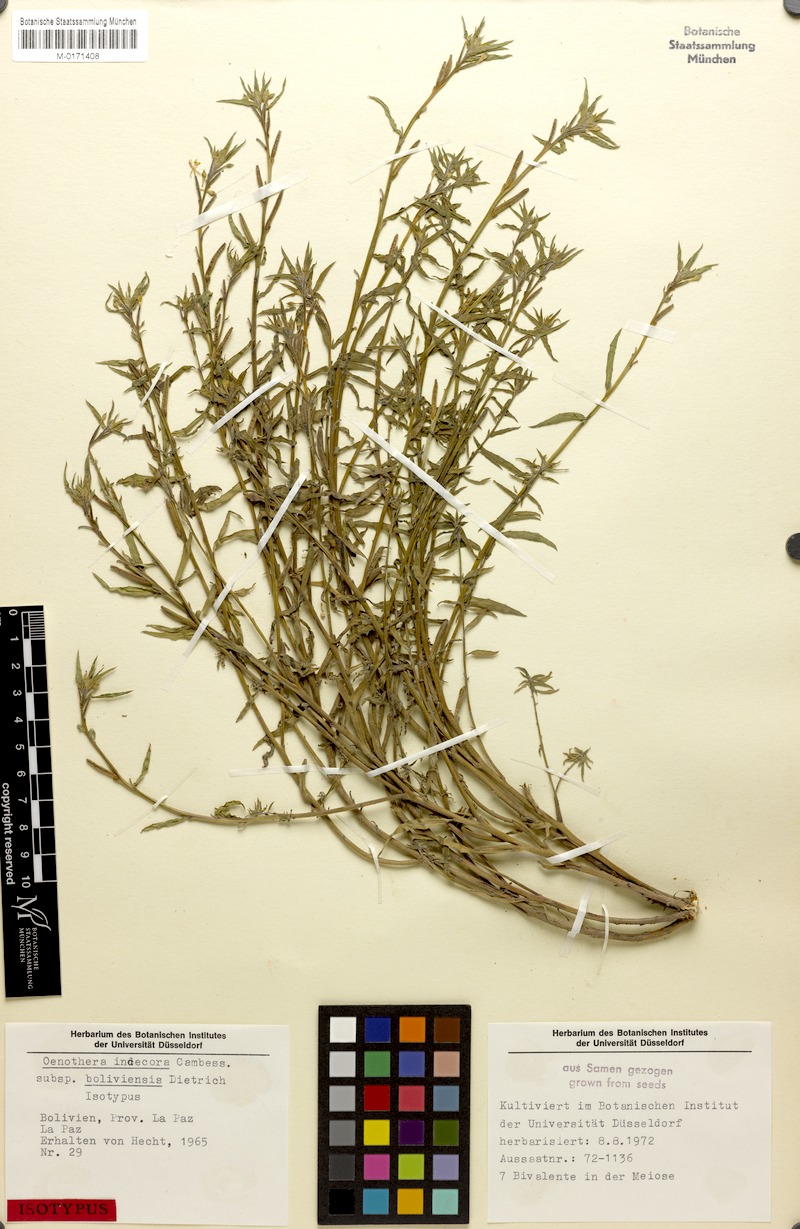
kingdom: Plantae
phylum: Tracheophyta
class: Magnoliopsida
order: Myrtales
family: Onagraceae
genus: Oenothera
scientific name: Oenothera indecora
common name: Small-flower evening-primrose
